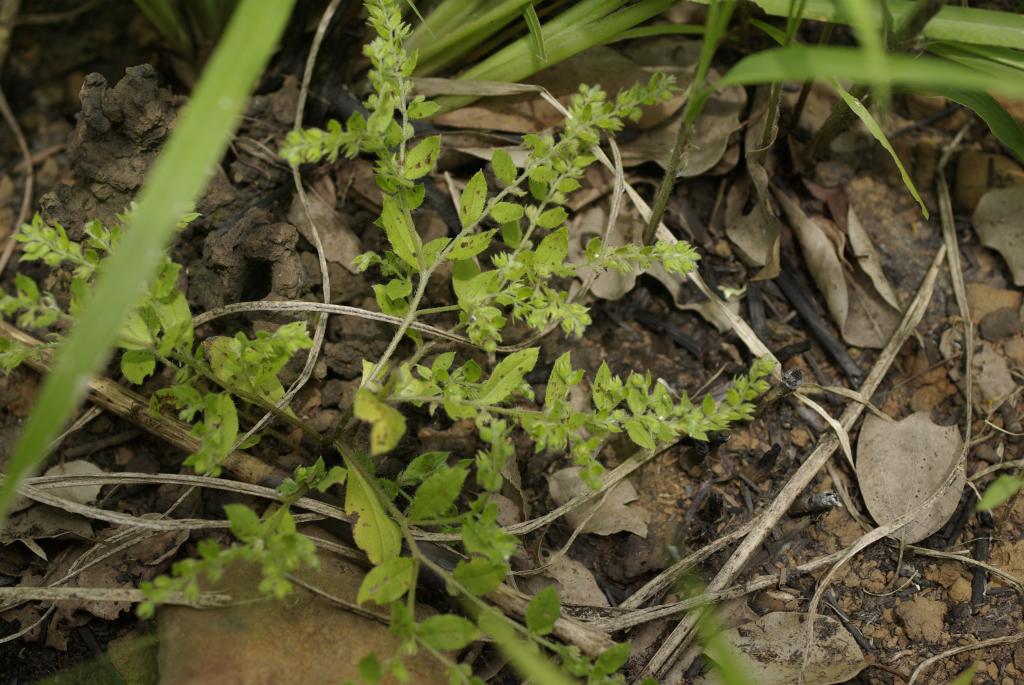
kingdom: Plantae
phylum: Tracheophyta
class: Magnoliopsida
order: Boraginales
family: Boraginaceae
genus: Bothriospermum
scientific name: Bothriospermum zeylanicum
